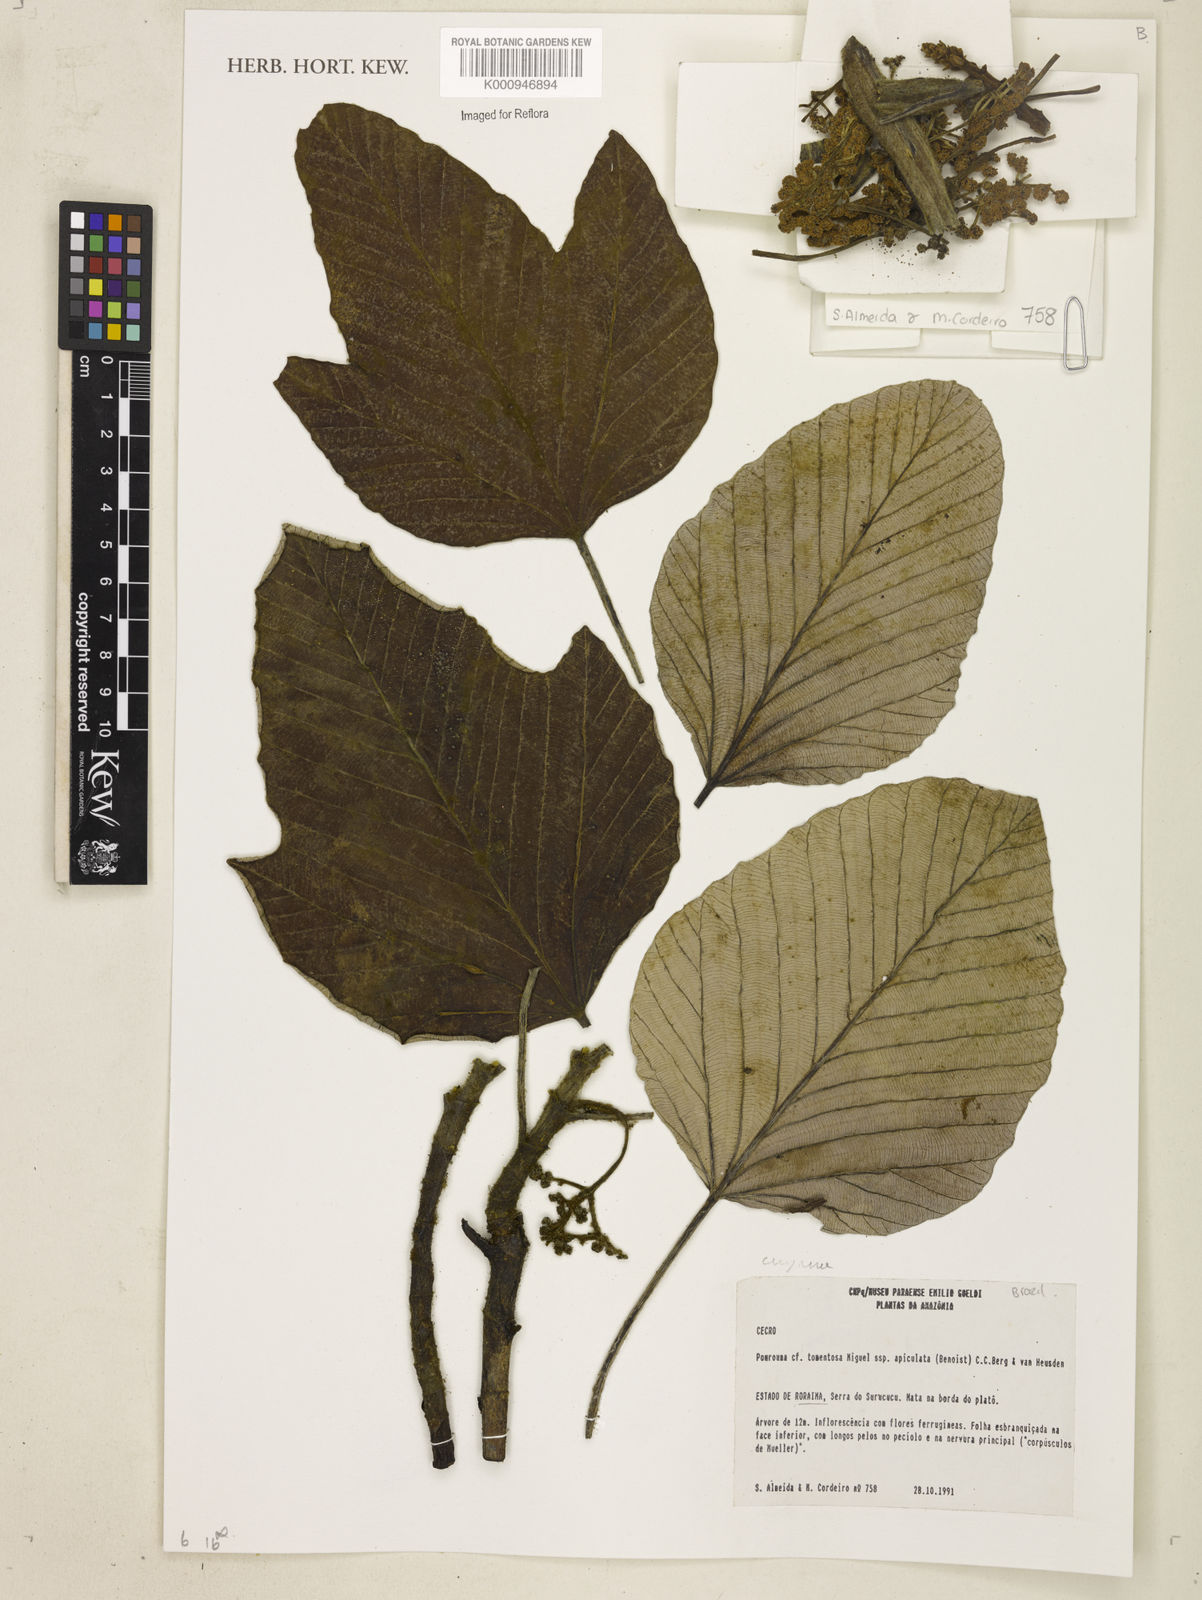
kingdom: Plantae
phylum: Tracheophyta
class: Magnoliopsida
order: Rosales
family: Urticaceae
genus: Pourouma
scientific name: Pourouma tomentosa
